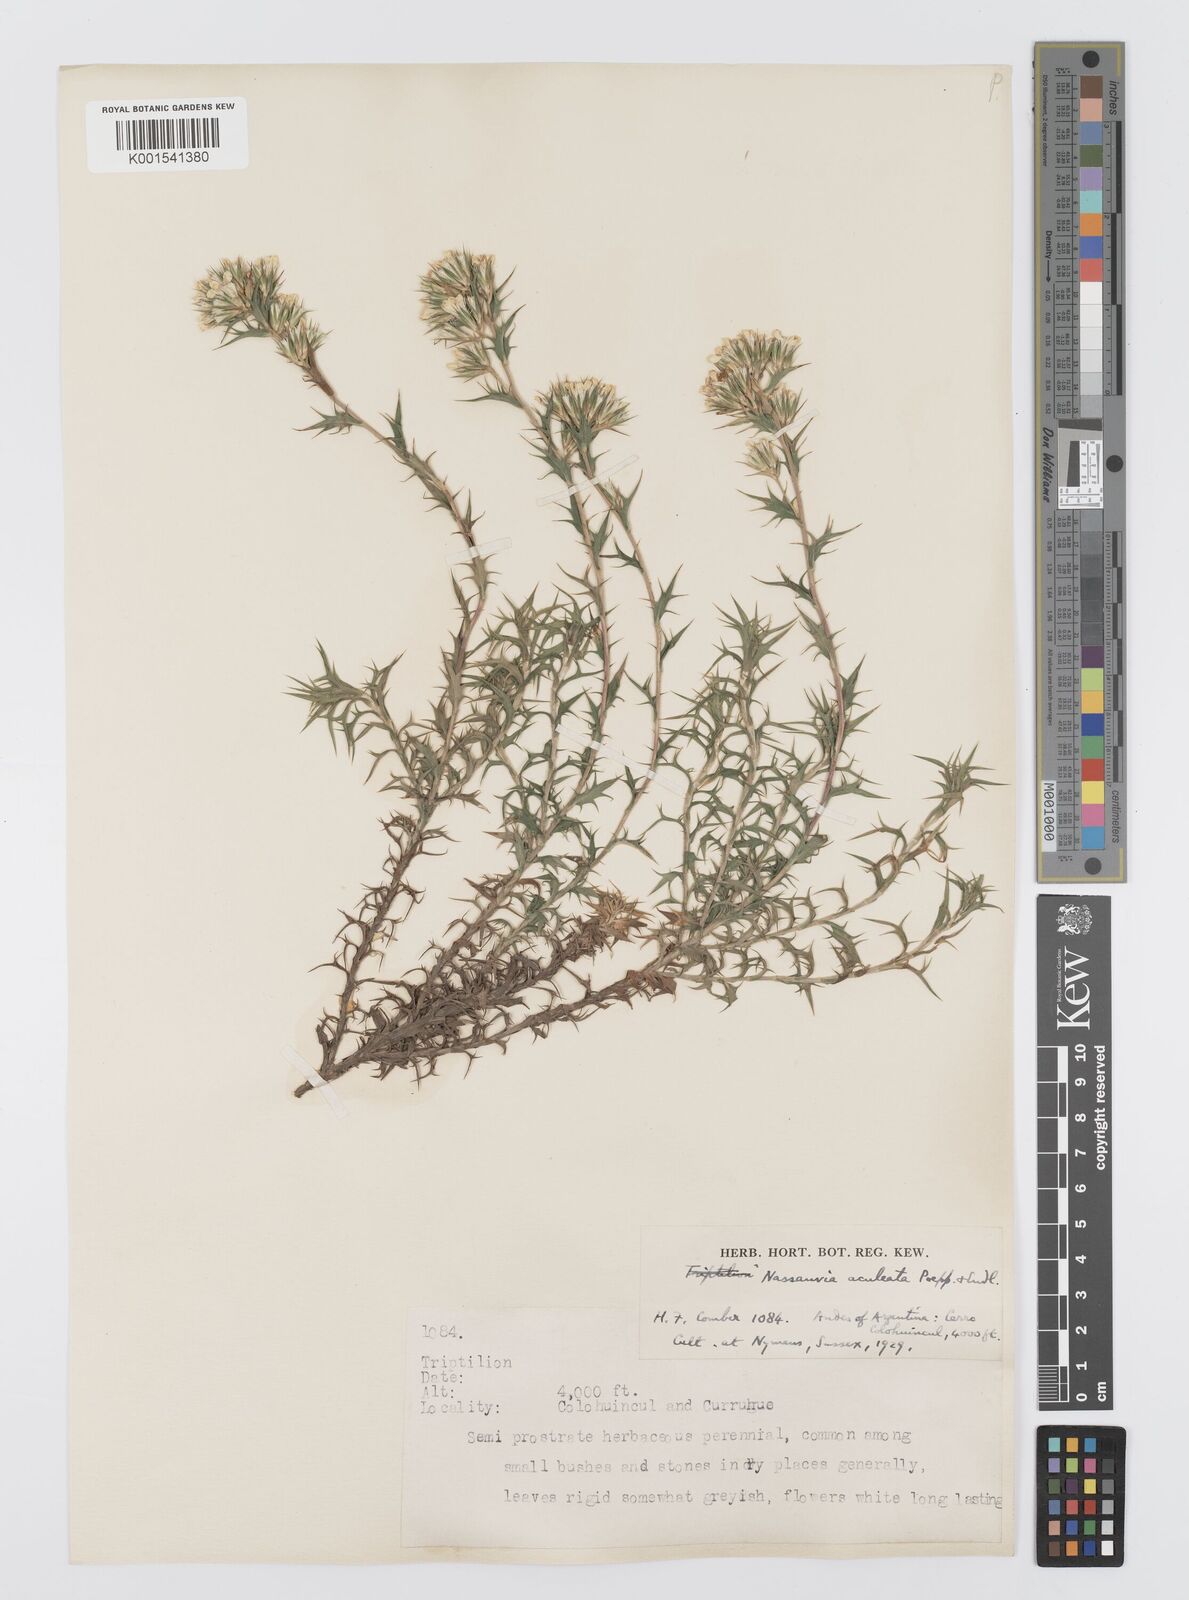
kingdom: Plantae
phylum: Tracheophyta
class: Magnoliopsida
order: Asterales
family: Asteraceae
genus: Nassauvia
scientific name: Nassauvia aculeata
